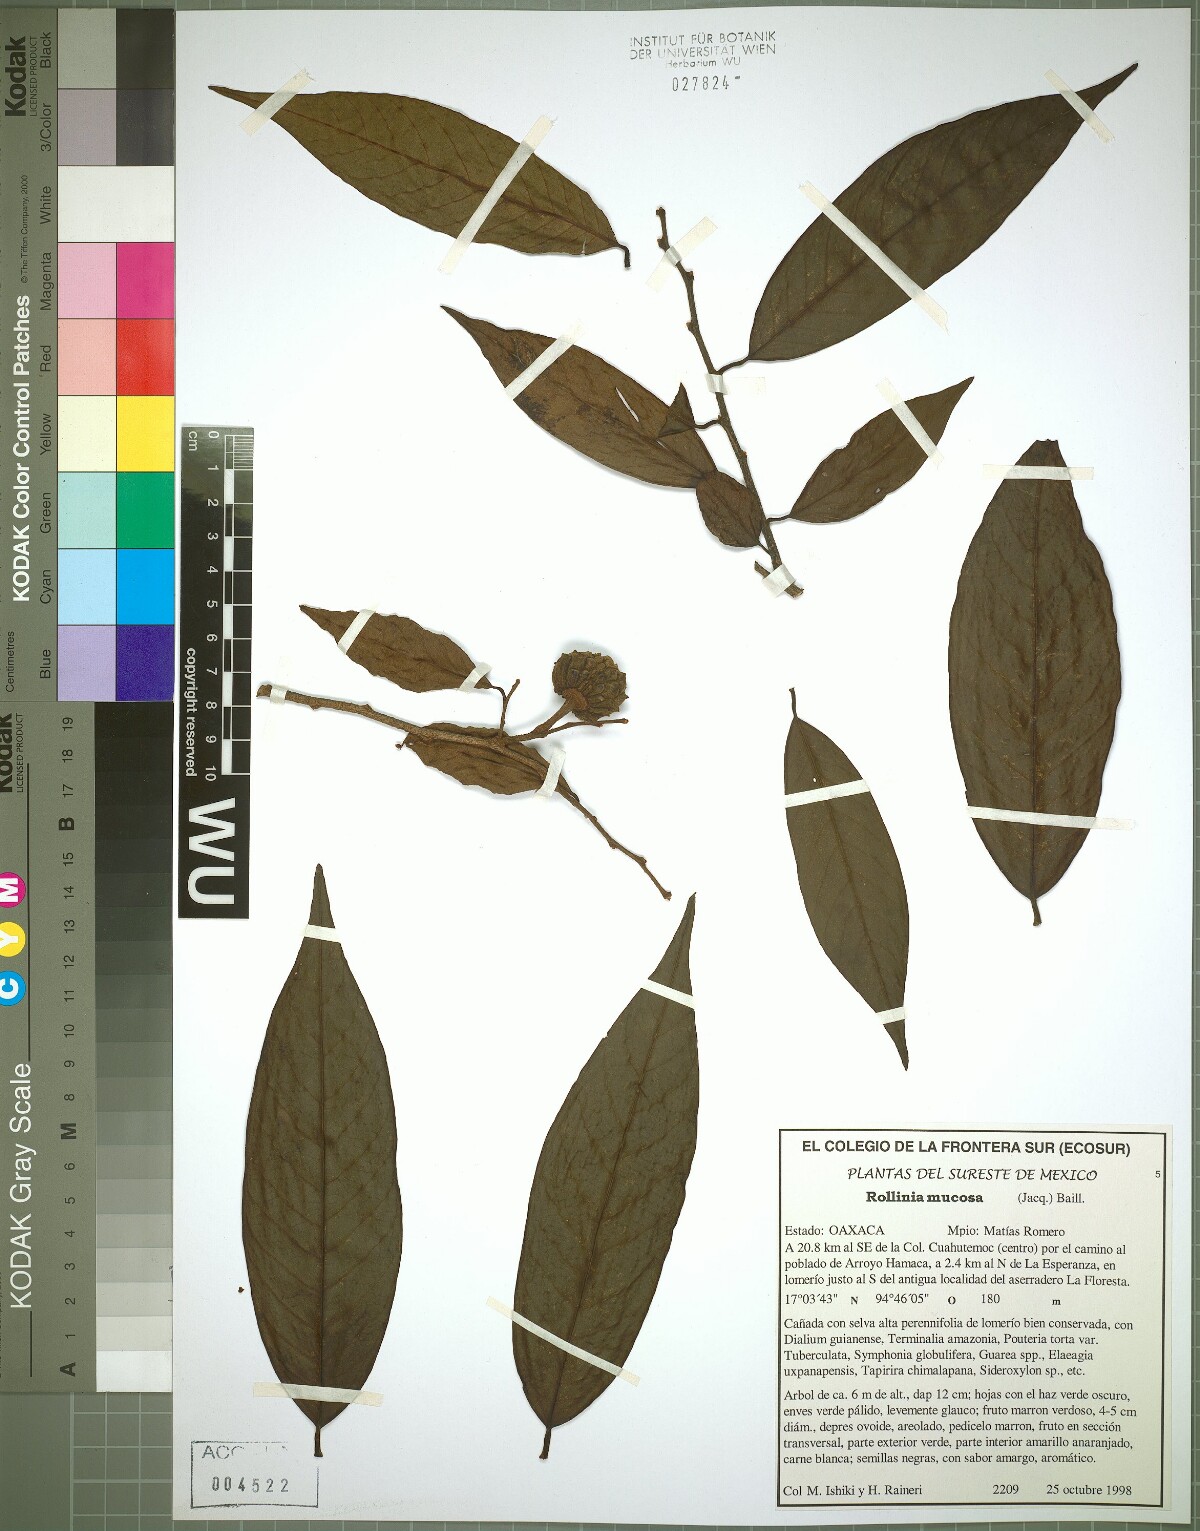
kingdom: Plantae
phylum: Tracheophyta
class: Magnoliopsida
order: Magnoliales
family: Annonaceae
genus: Annona
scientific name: Annona mucosa
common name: Sugar apple
